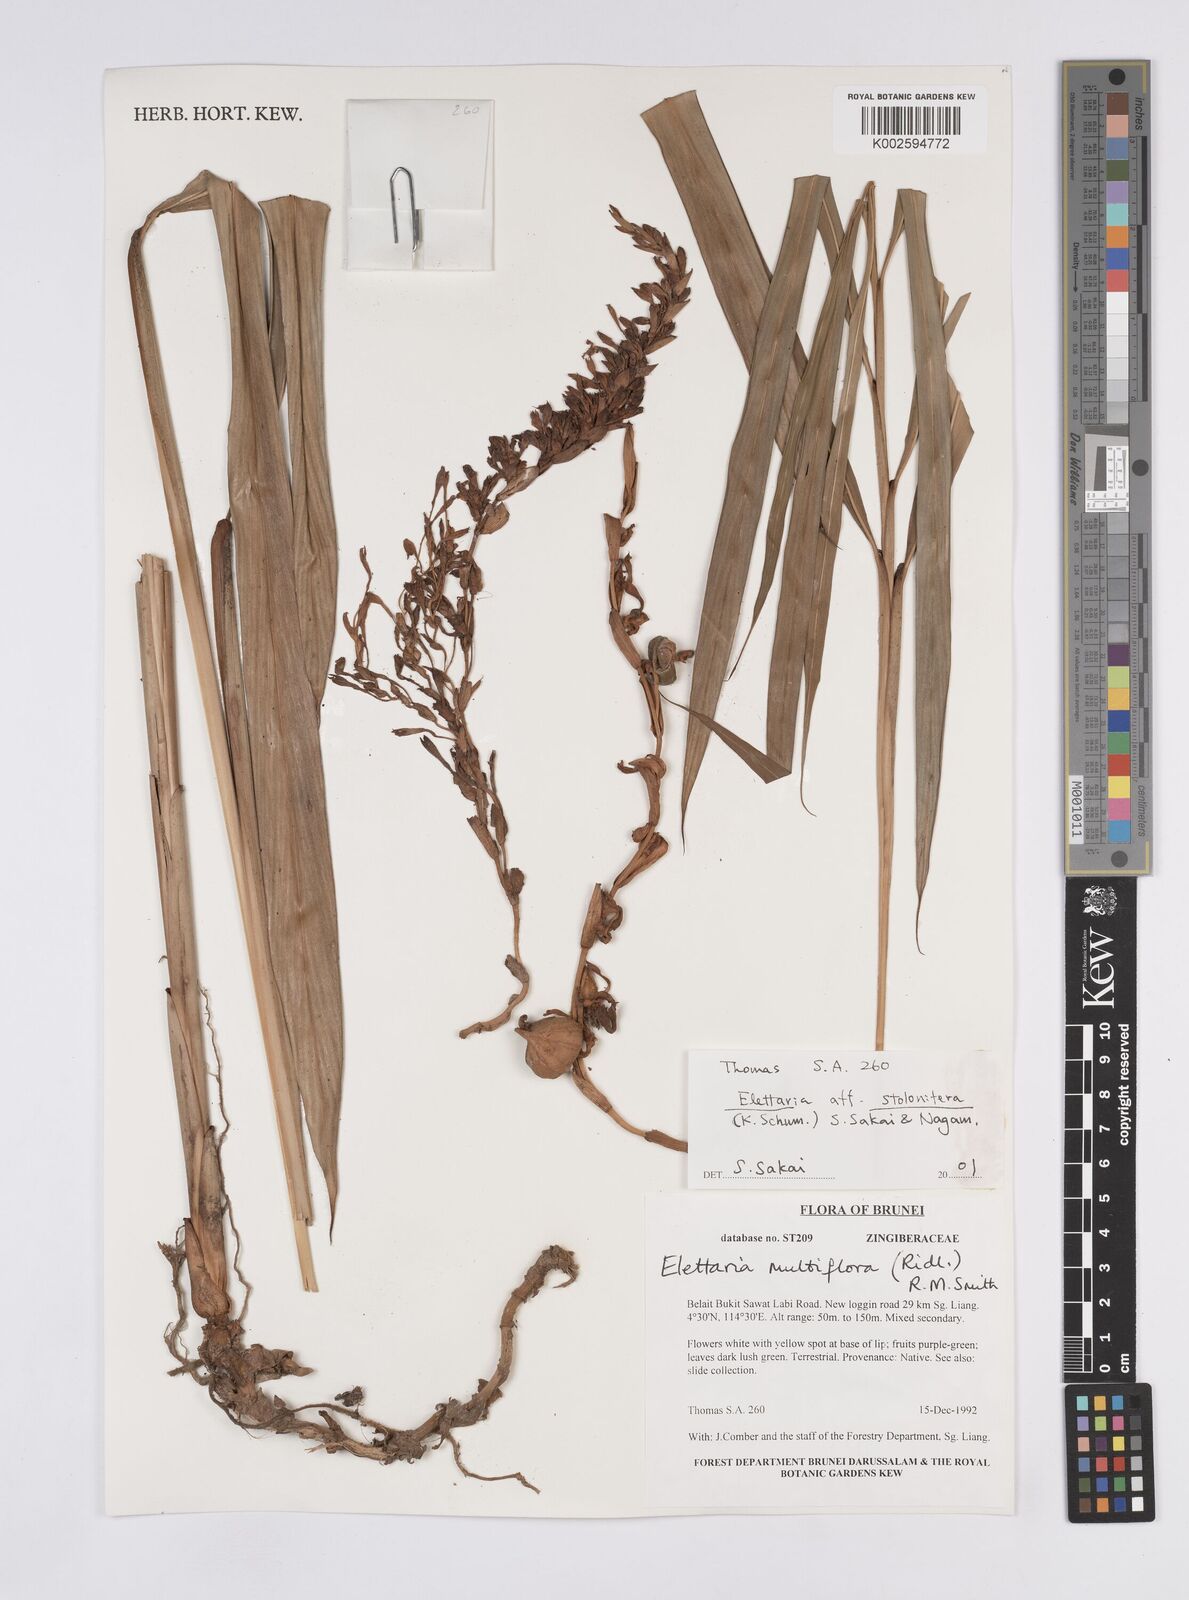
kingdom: Plantae
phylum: Tracheophyta
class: Liliopsida
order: Zingiberales
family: Zingiberaceae
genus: Sulettaria
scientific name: Sulettaria stoloniflora
